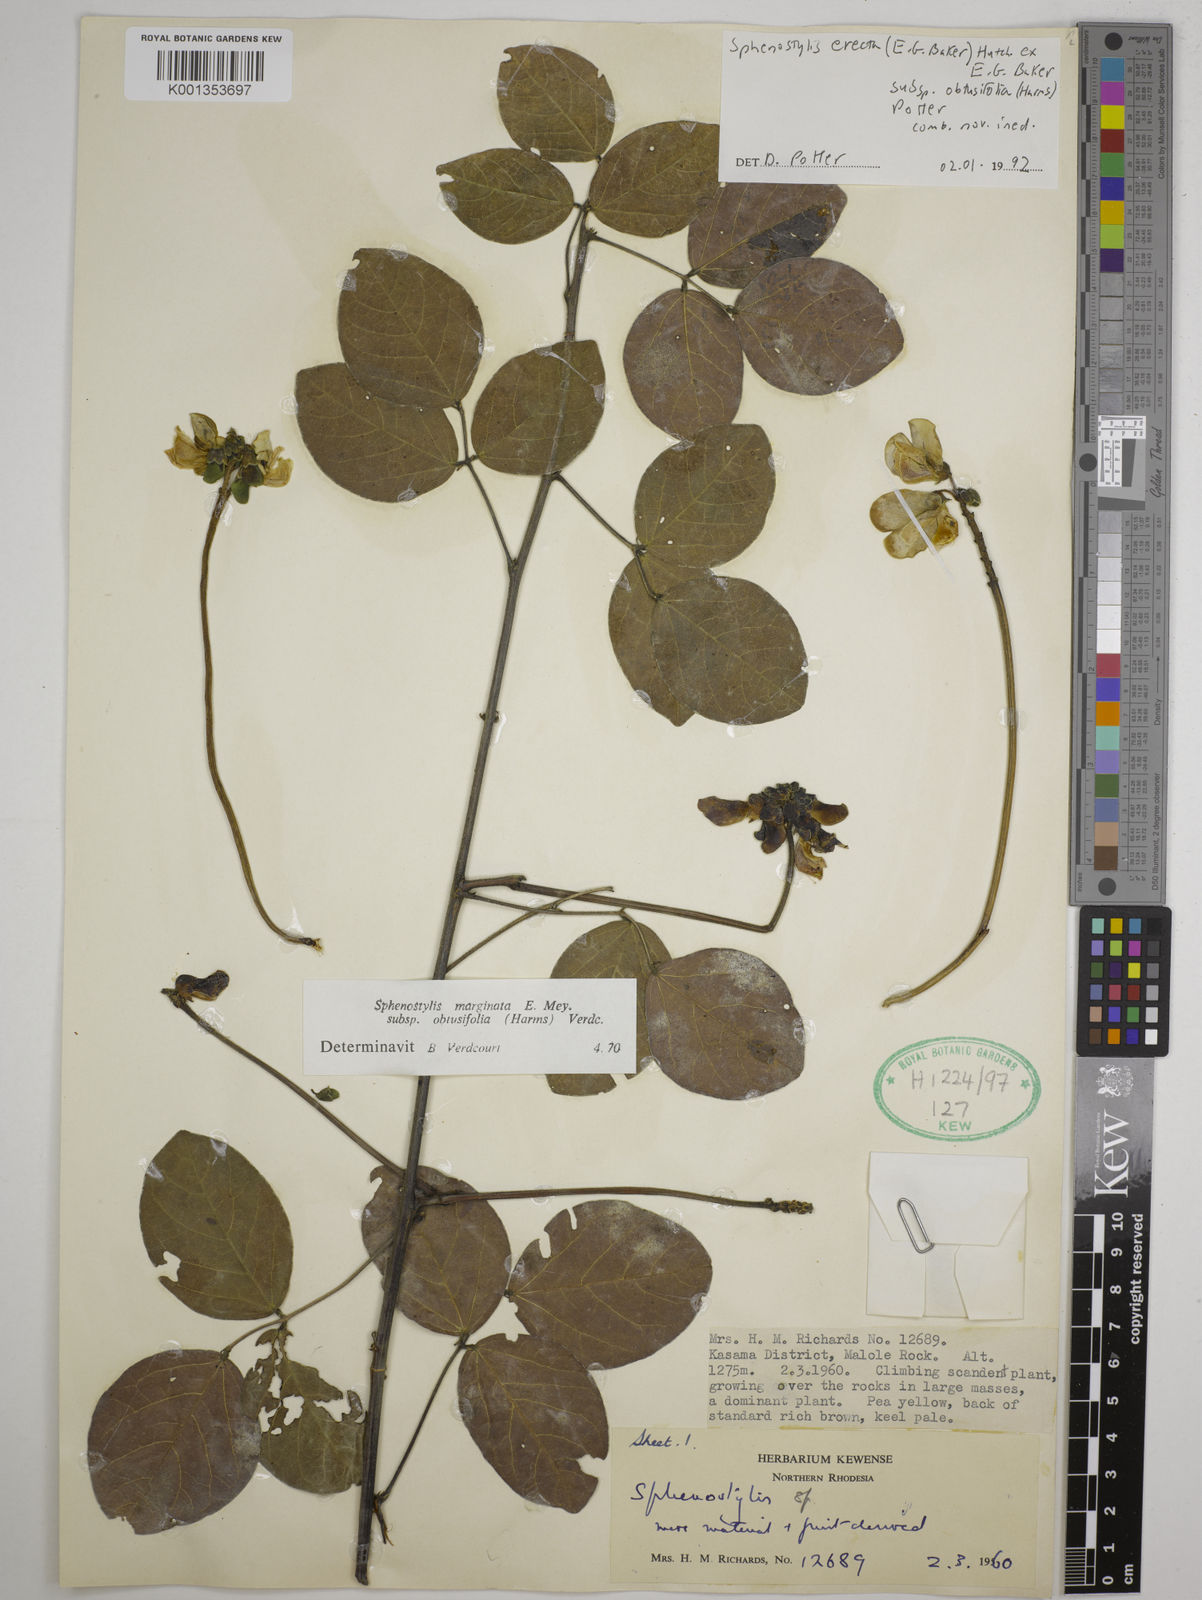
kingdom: Plantae
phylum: Tracheophyta
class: Magnoliopsida
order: Fabales
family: Fabaceae
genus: Sphenostylis
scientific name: Sphenostylis erecta
